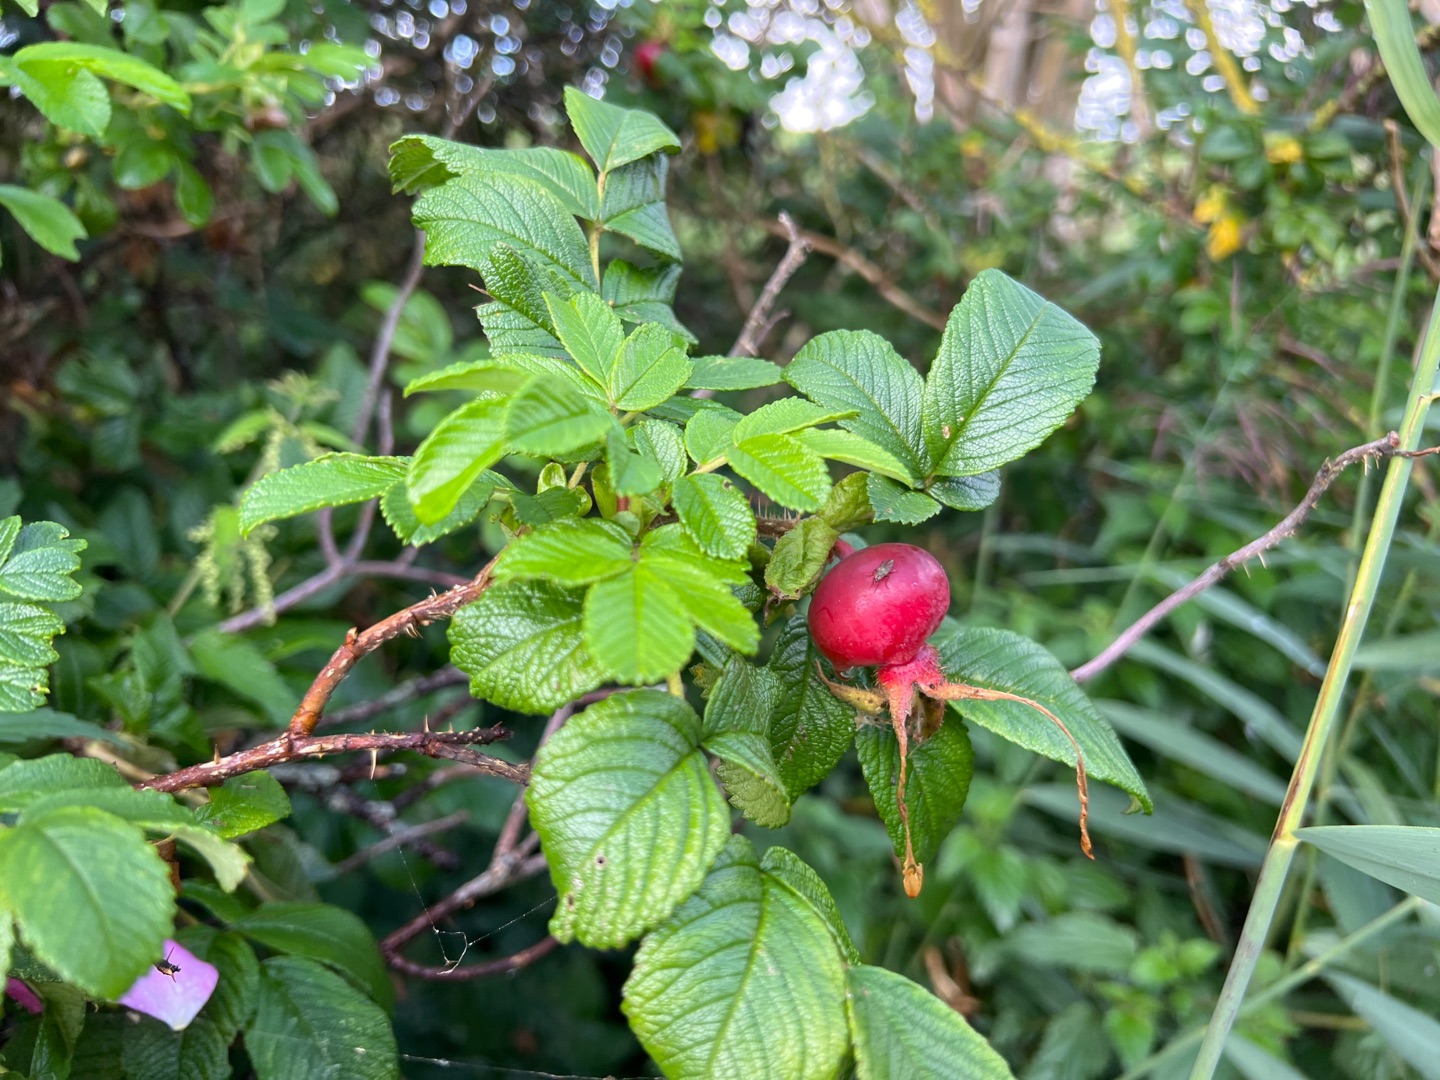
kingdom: Plantae
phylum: Tracheophyta
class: Magnoliopsida
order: Rosales
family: Rosaceae
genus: Rosa
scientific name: Rosa rugosa
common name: Rynket rose
